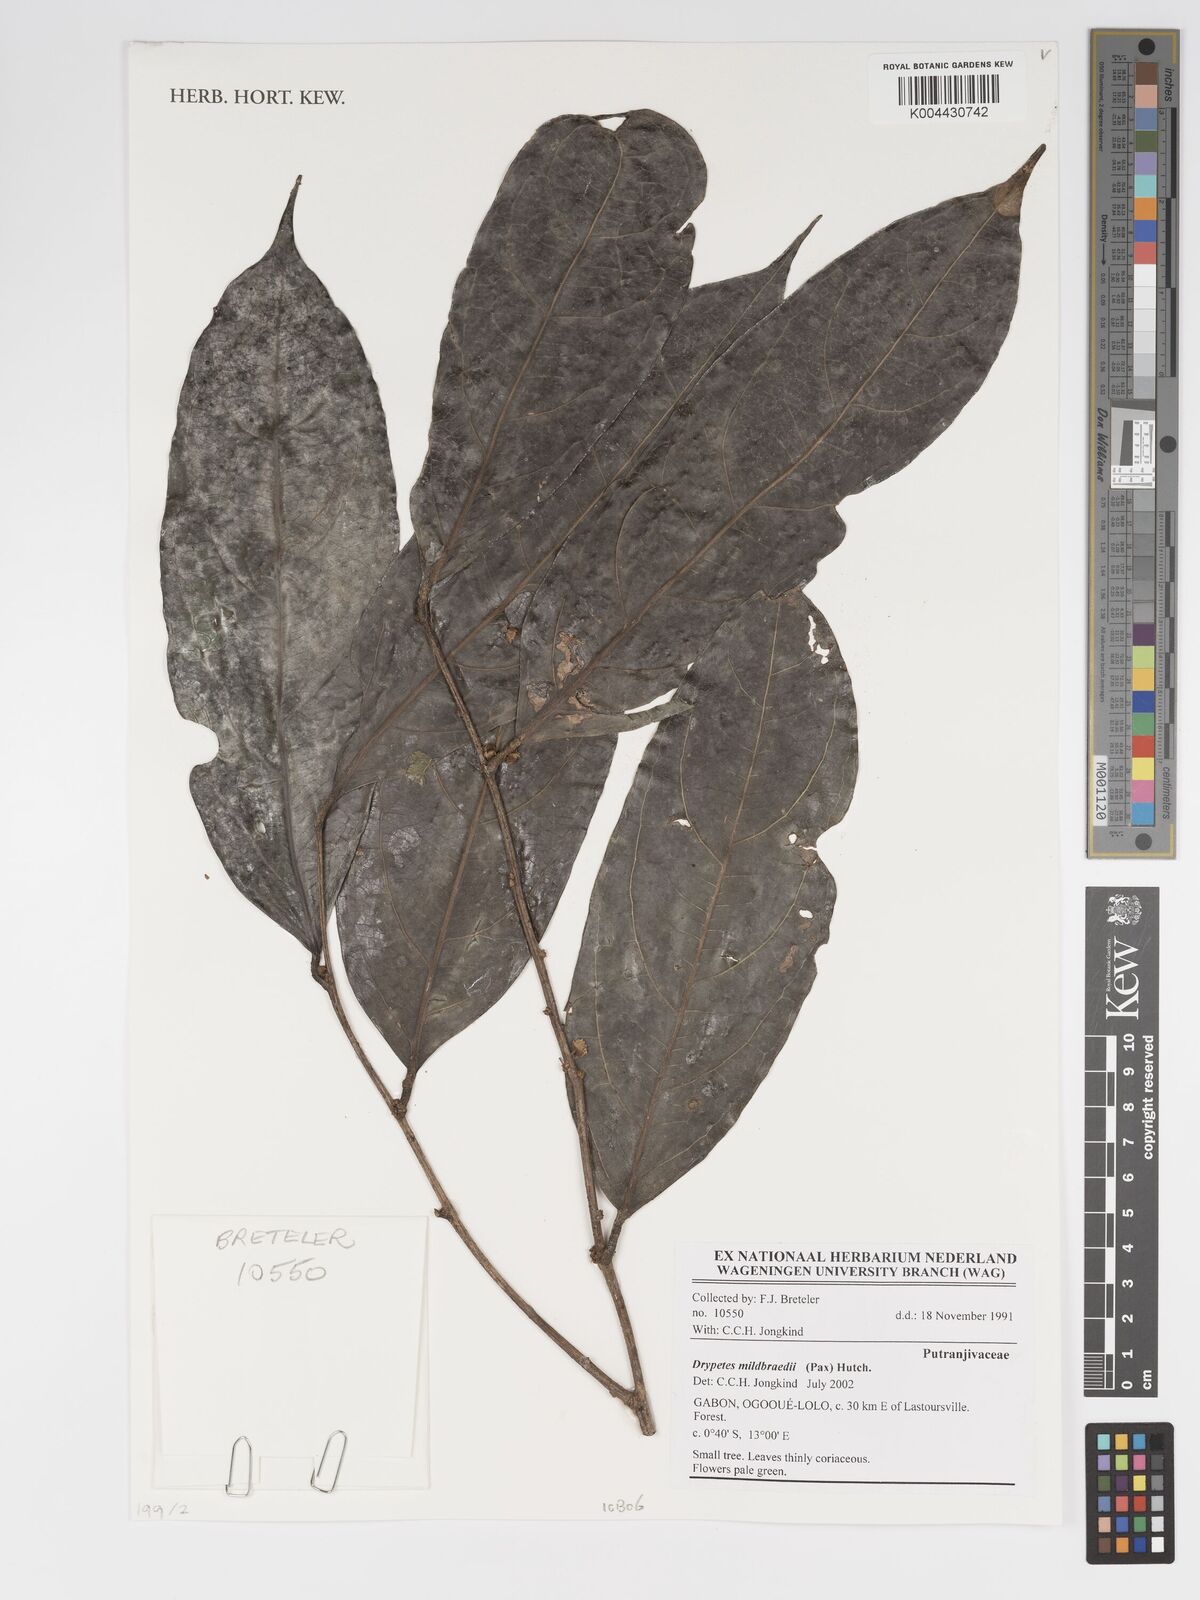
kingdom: Plantae
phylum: Tracheophyta
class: Magnoliopsida
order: Malpighiales
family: Putranjivaceae
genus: Drypetes
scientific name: Drypetes mildbraedii
